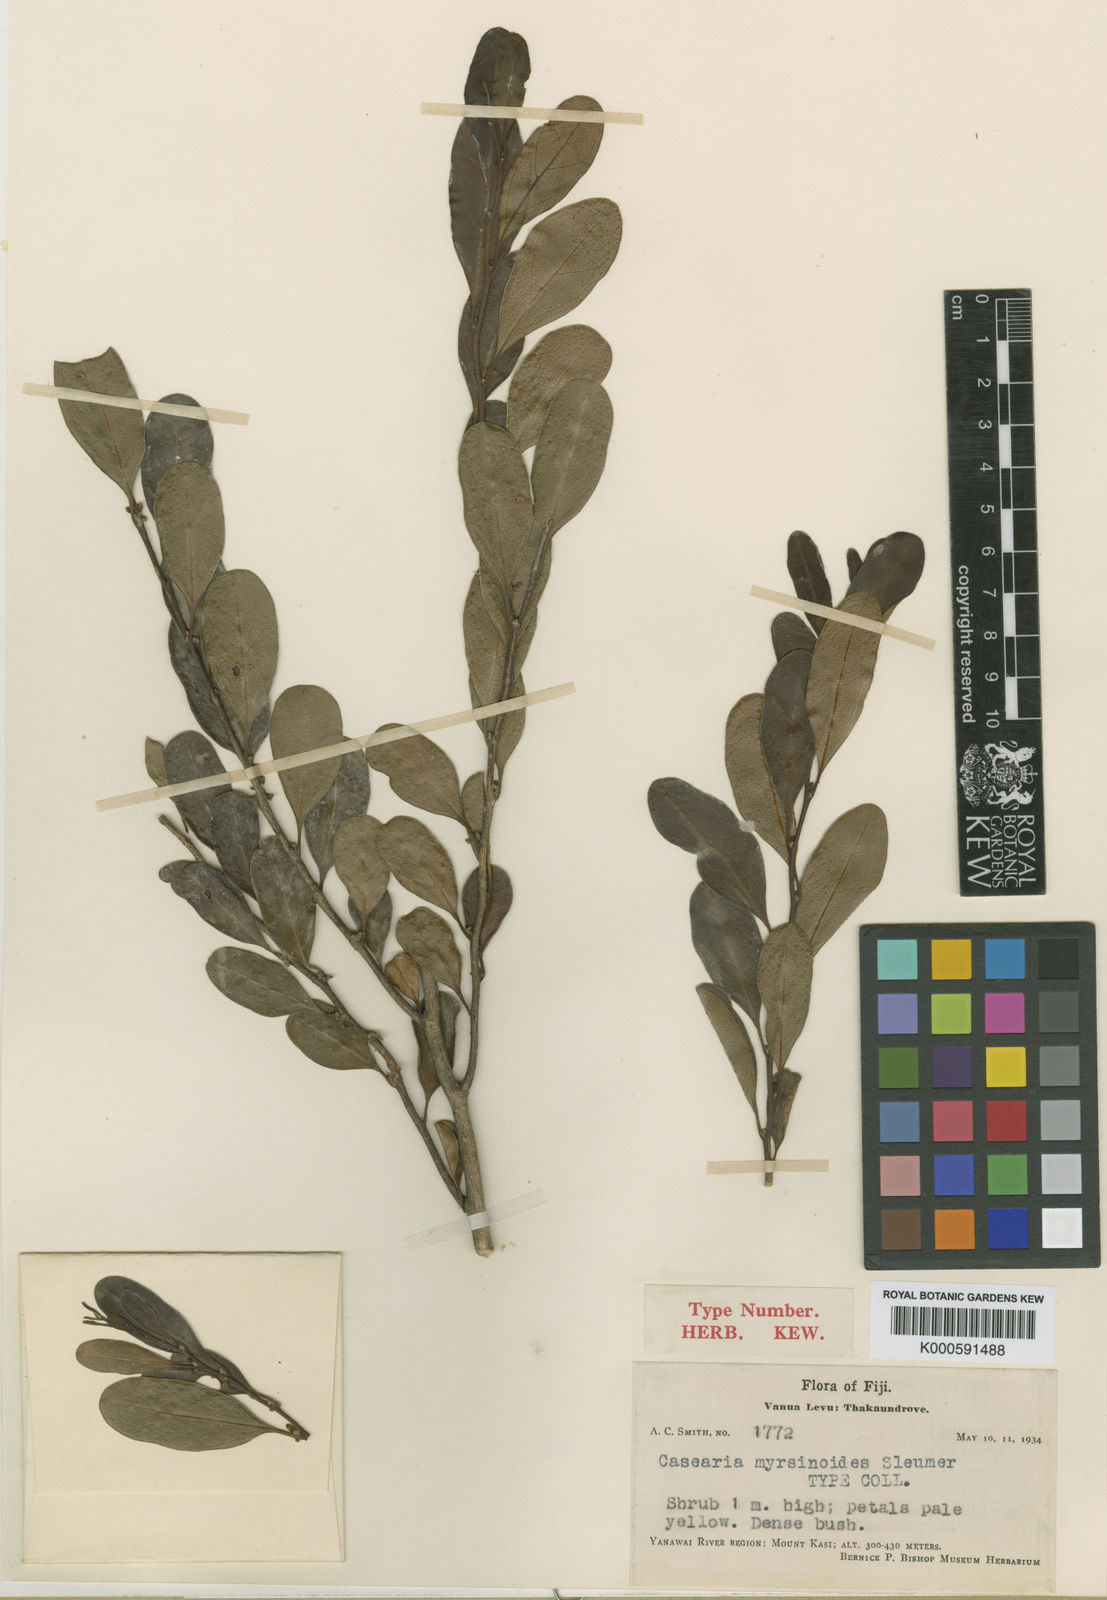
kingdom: Plantae
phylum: Tracheophyta
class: Magnoliopsida
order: Malpighiales
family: Salicaceae
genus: Casearia
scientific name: Casearia myrsinoides
